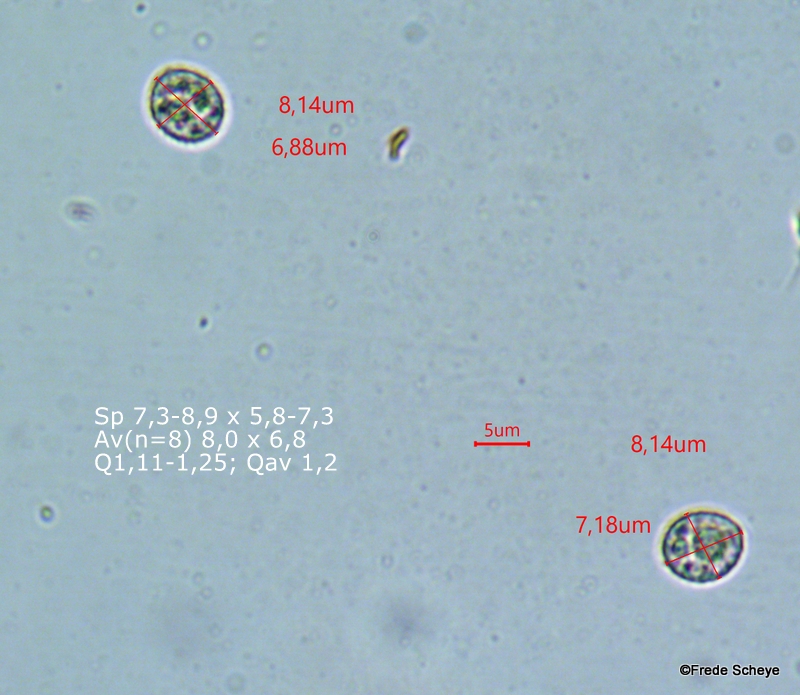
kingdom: Fungi
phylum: Basidiomycota
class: Agaricomycetes
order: Agaricales
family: Crepidotaceae
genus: Crepidotus
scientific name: Crepidotus cesatii
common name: almindelig muslingesvamp
